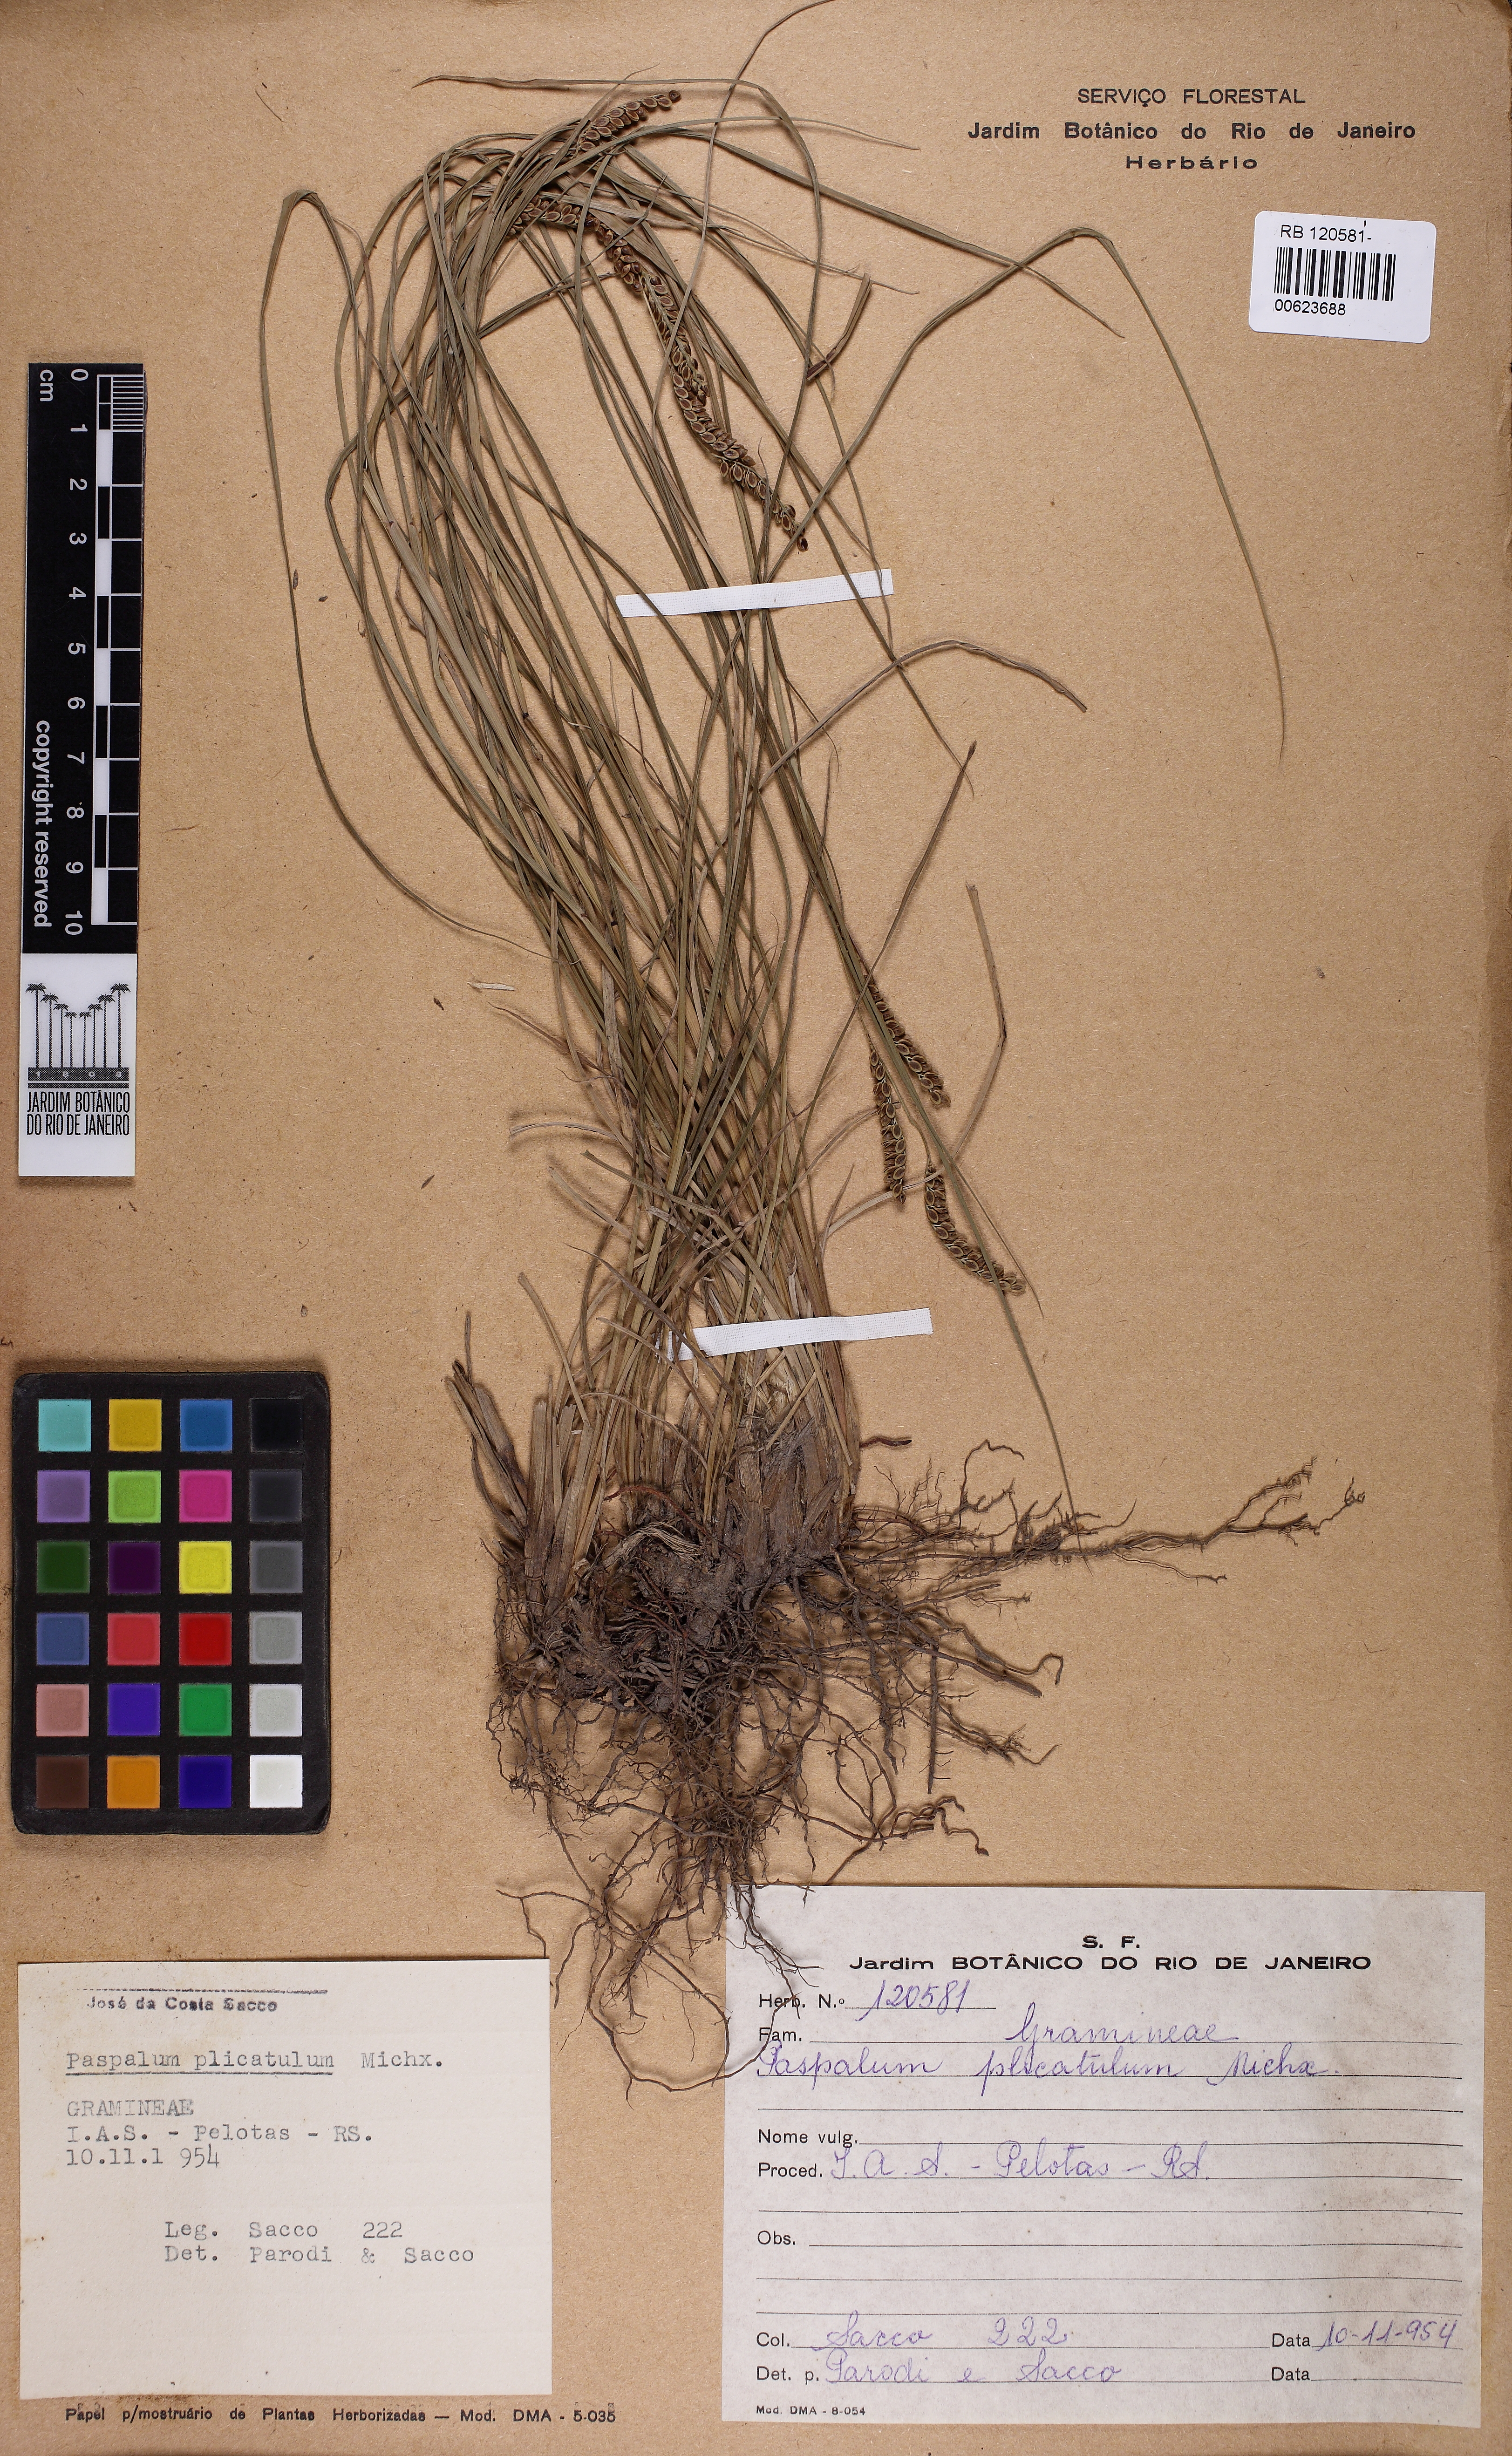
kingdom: Plantae
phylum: Tracheophyta
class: Liliopsida
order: Poales
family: Poaceae
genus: Paspalum
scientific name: Paspalum plicatulum
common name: Top paspalum
